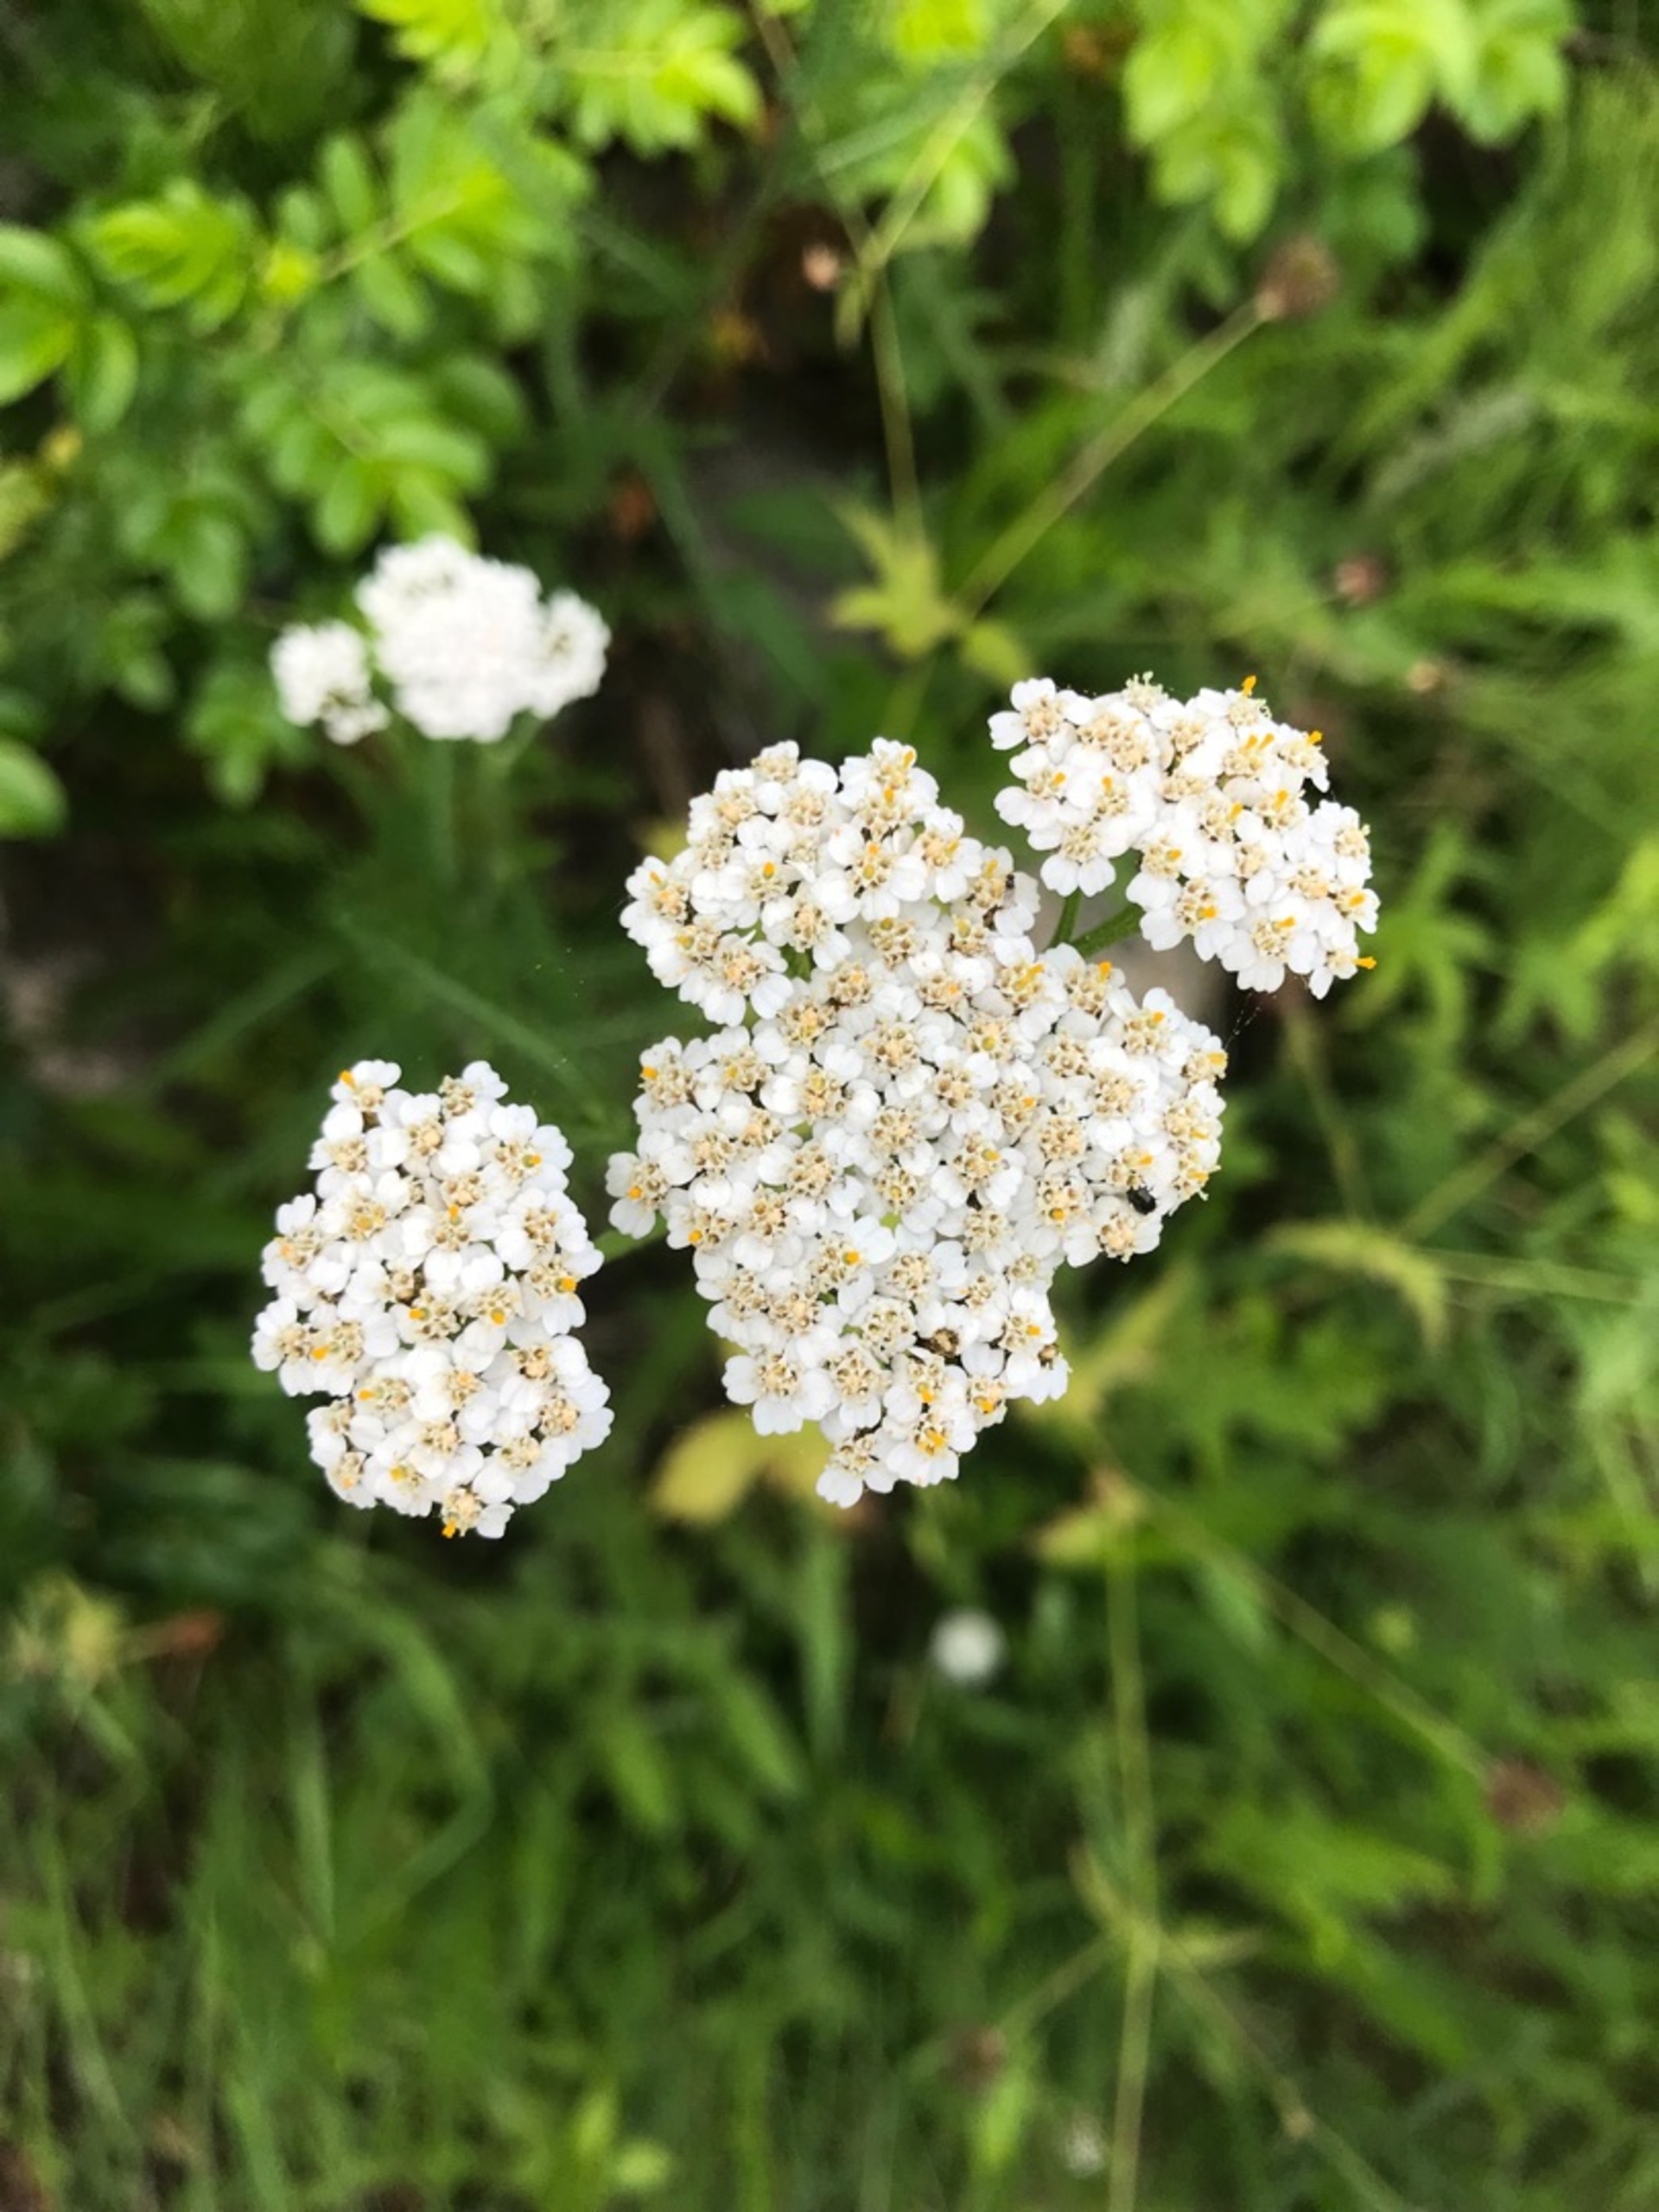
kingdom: Plantae
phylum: Tracheophyta
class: Magnoliopsida
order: Asterales
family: Asteraceae
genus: Achillea
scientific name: Achillea millefolium
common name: Almindelig røllike (underart)
